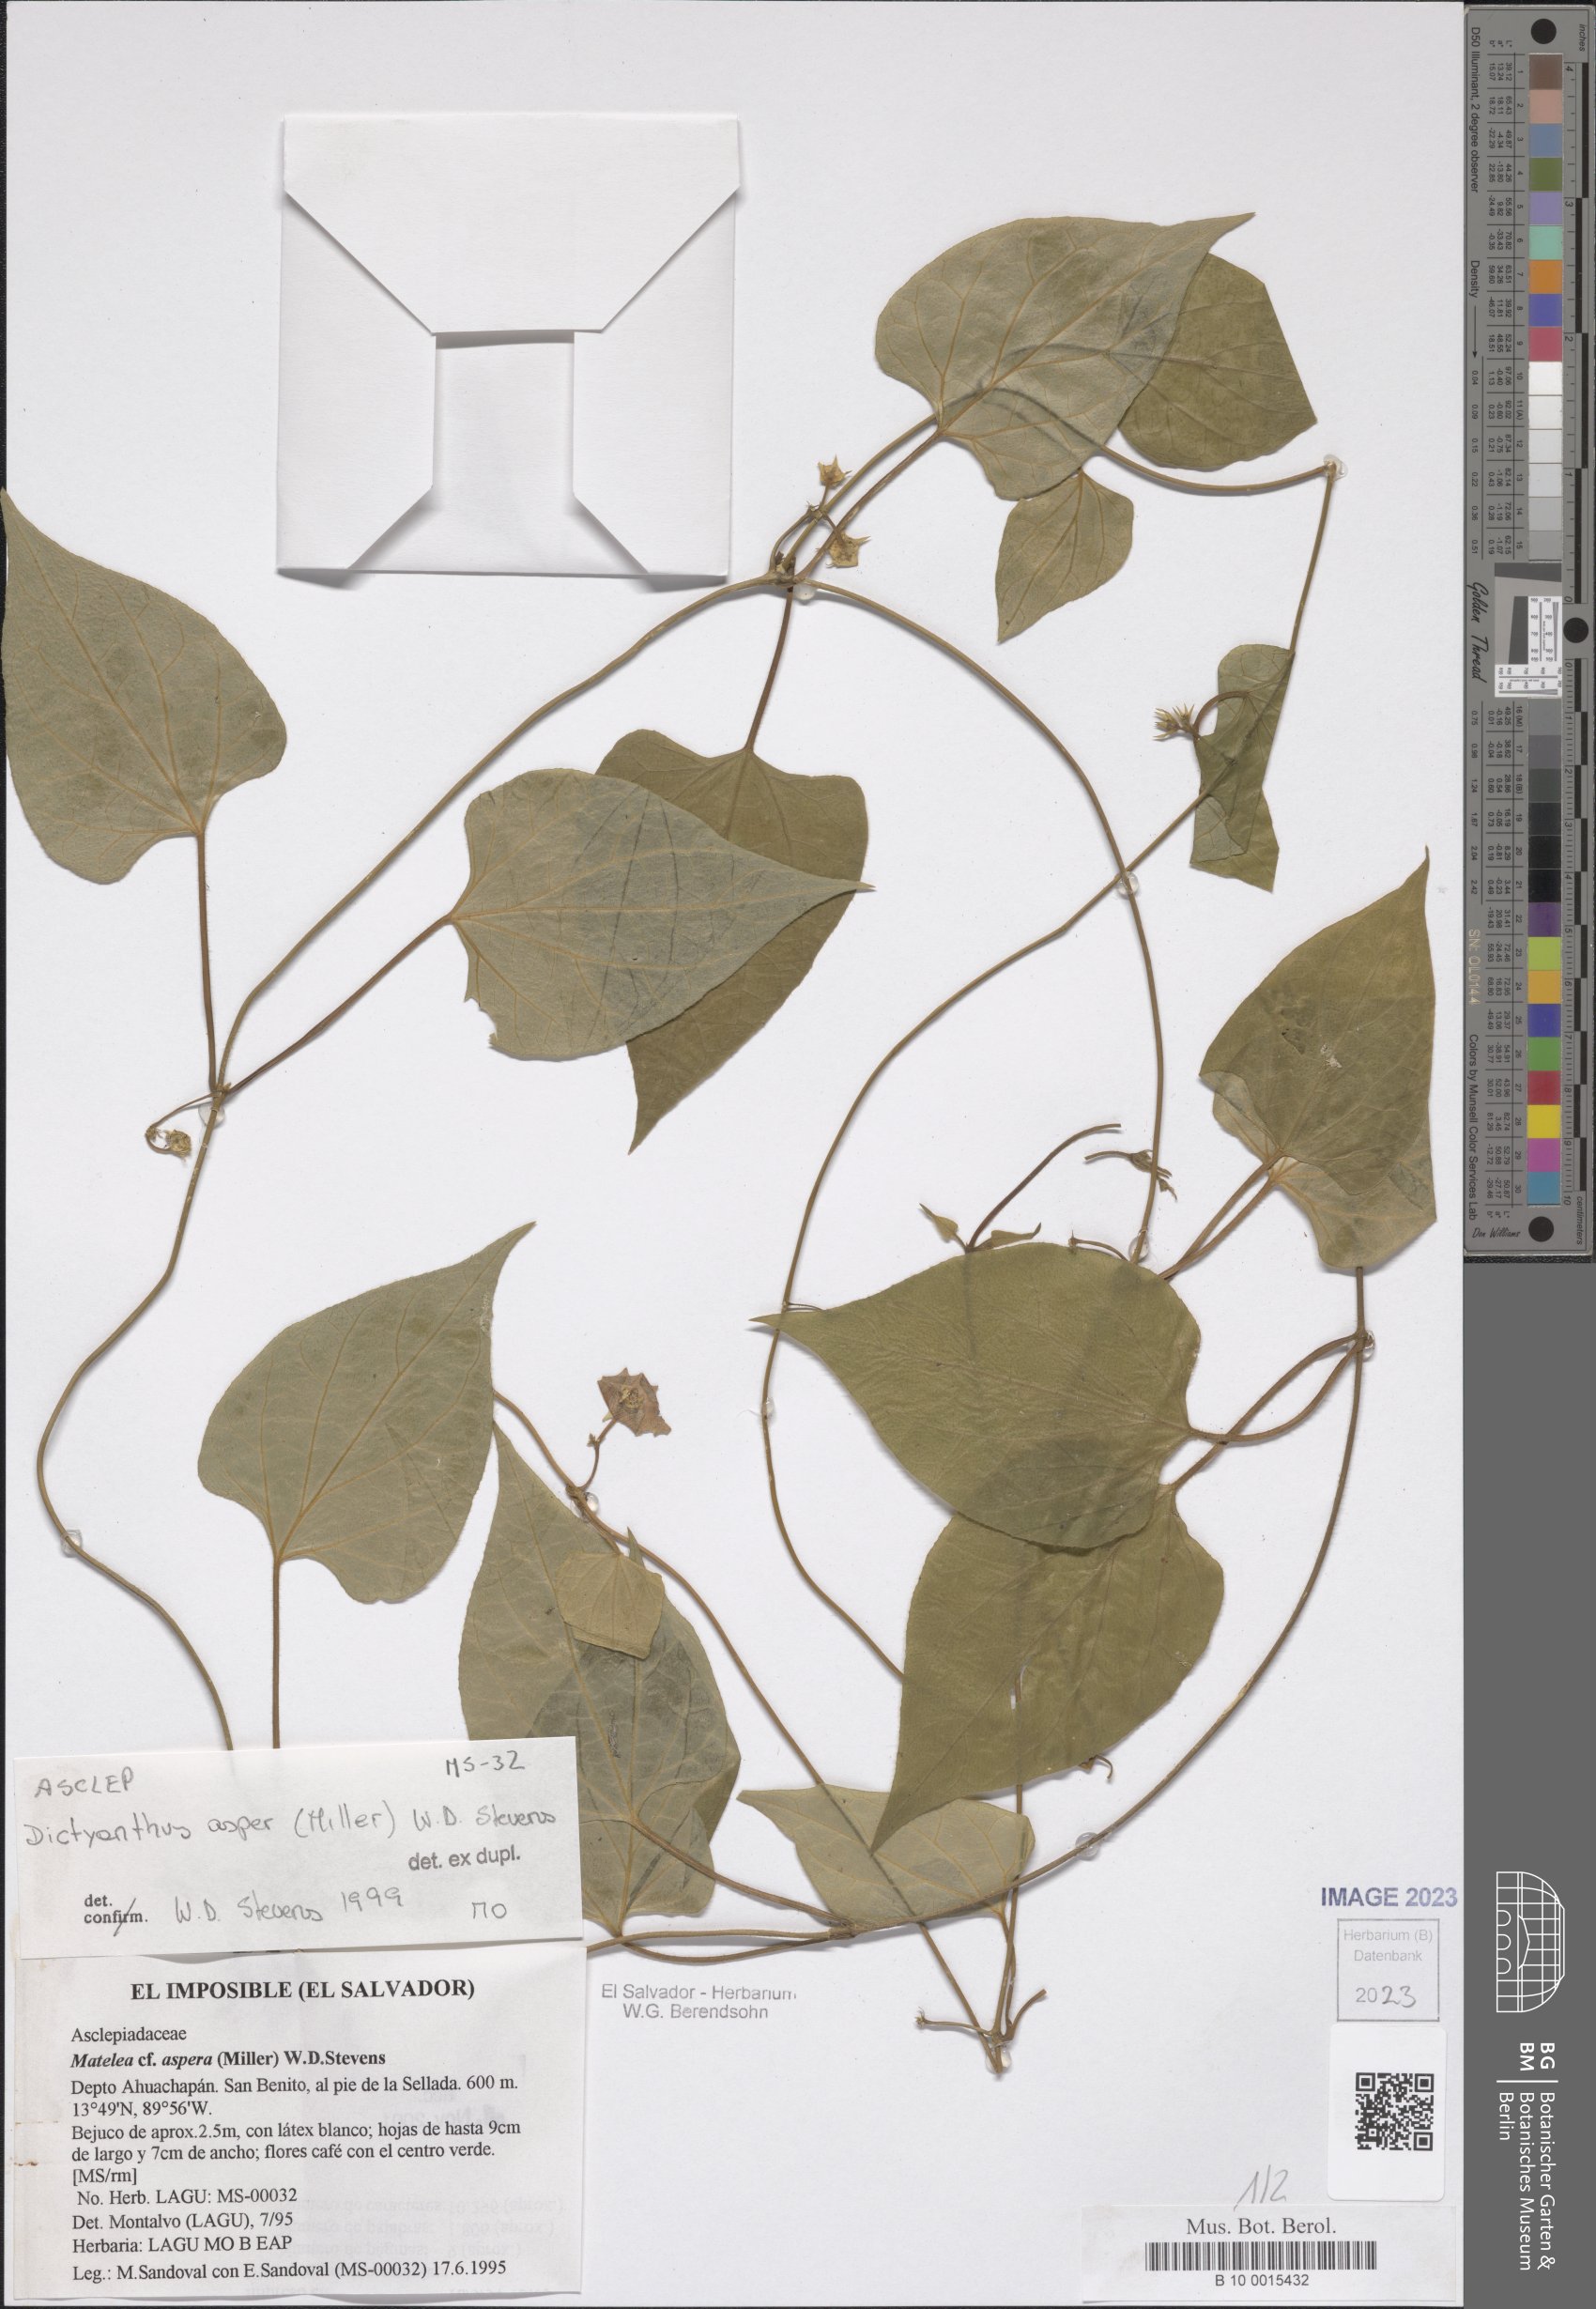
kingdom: Plantae
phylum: Tracheophyta
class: Magnoliopsida
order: Gentianales
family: Apocynaceae
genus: Dictyanthus
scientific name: Dictyanthus asper
